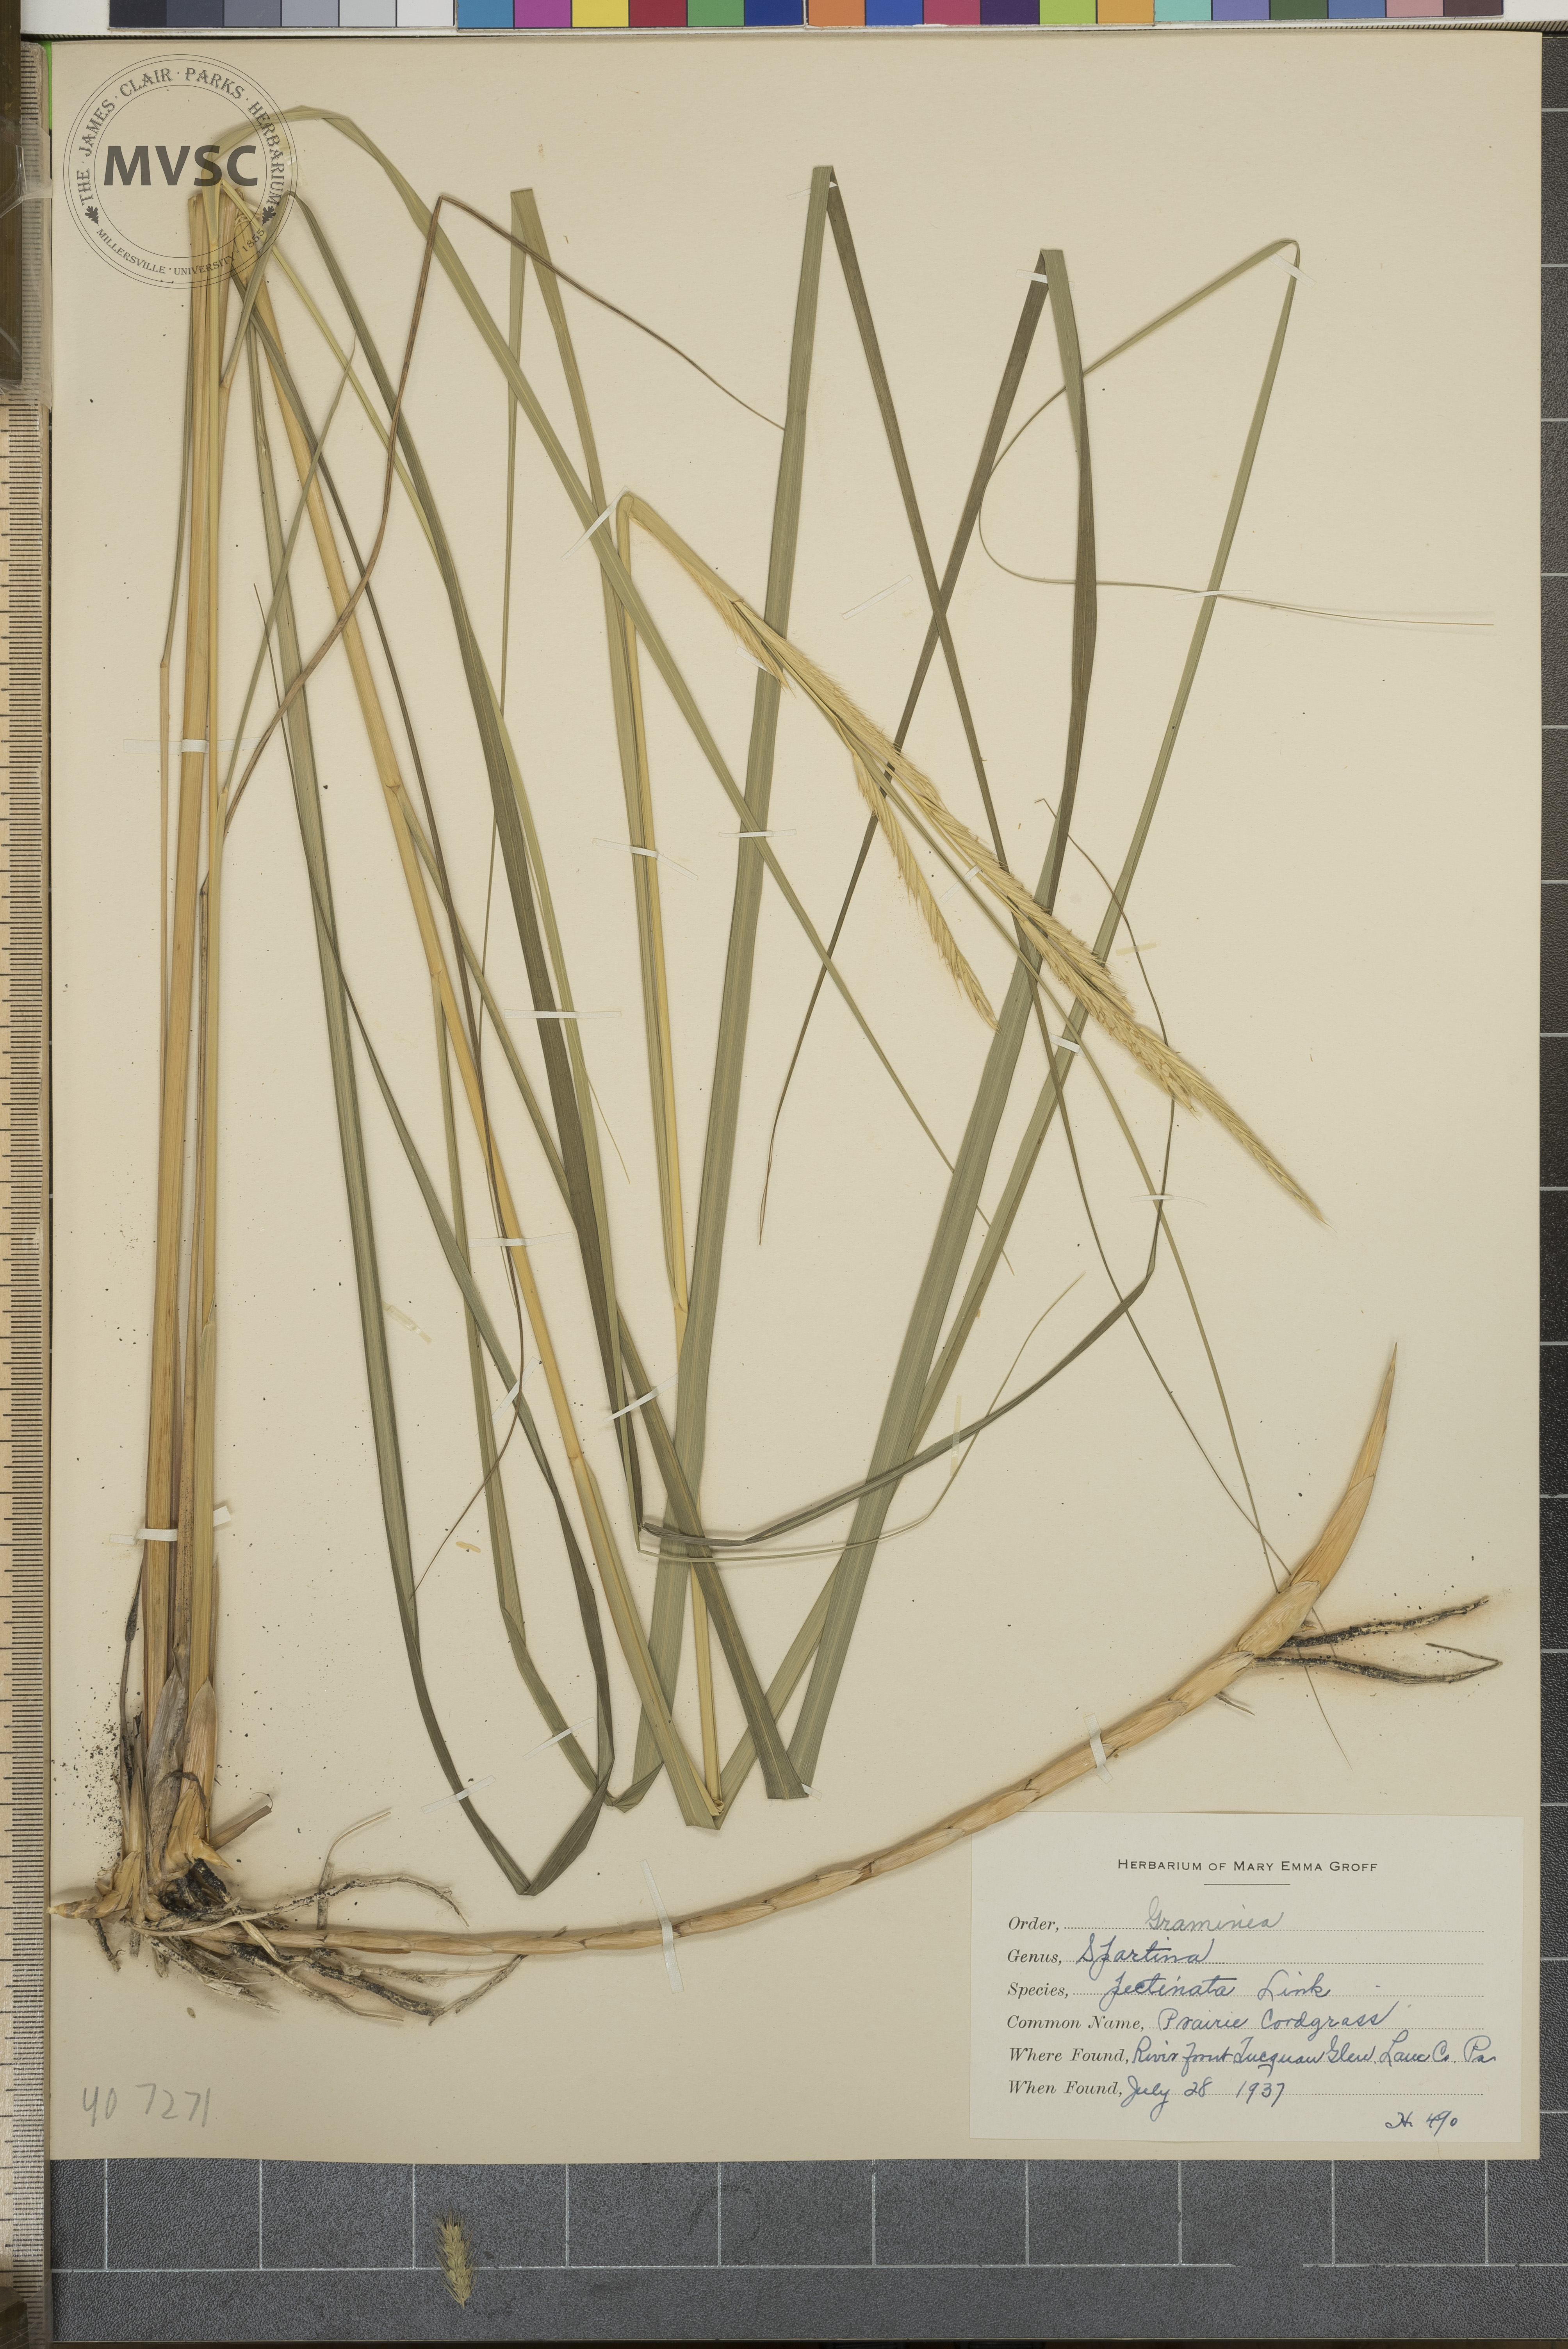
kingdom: Plantae
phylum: Tracheophyta
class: Liliopsida
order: Poales
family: Poaceae
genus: Sporobolus
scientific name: Sporobolus michauxianus
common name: Prairie Cord grass
